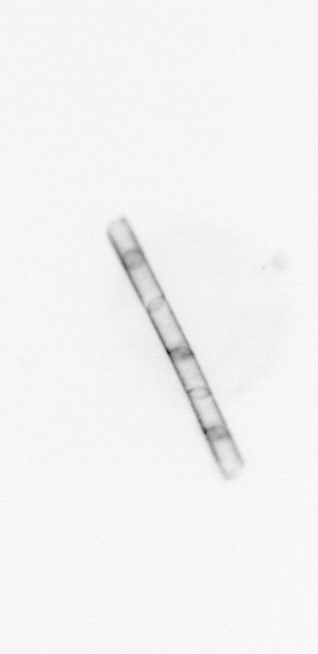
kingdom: Chromista
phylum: Ochrophyta
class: Bacillariophyceae
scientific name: Bacillariophyceae
